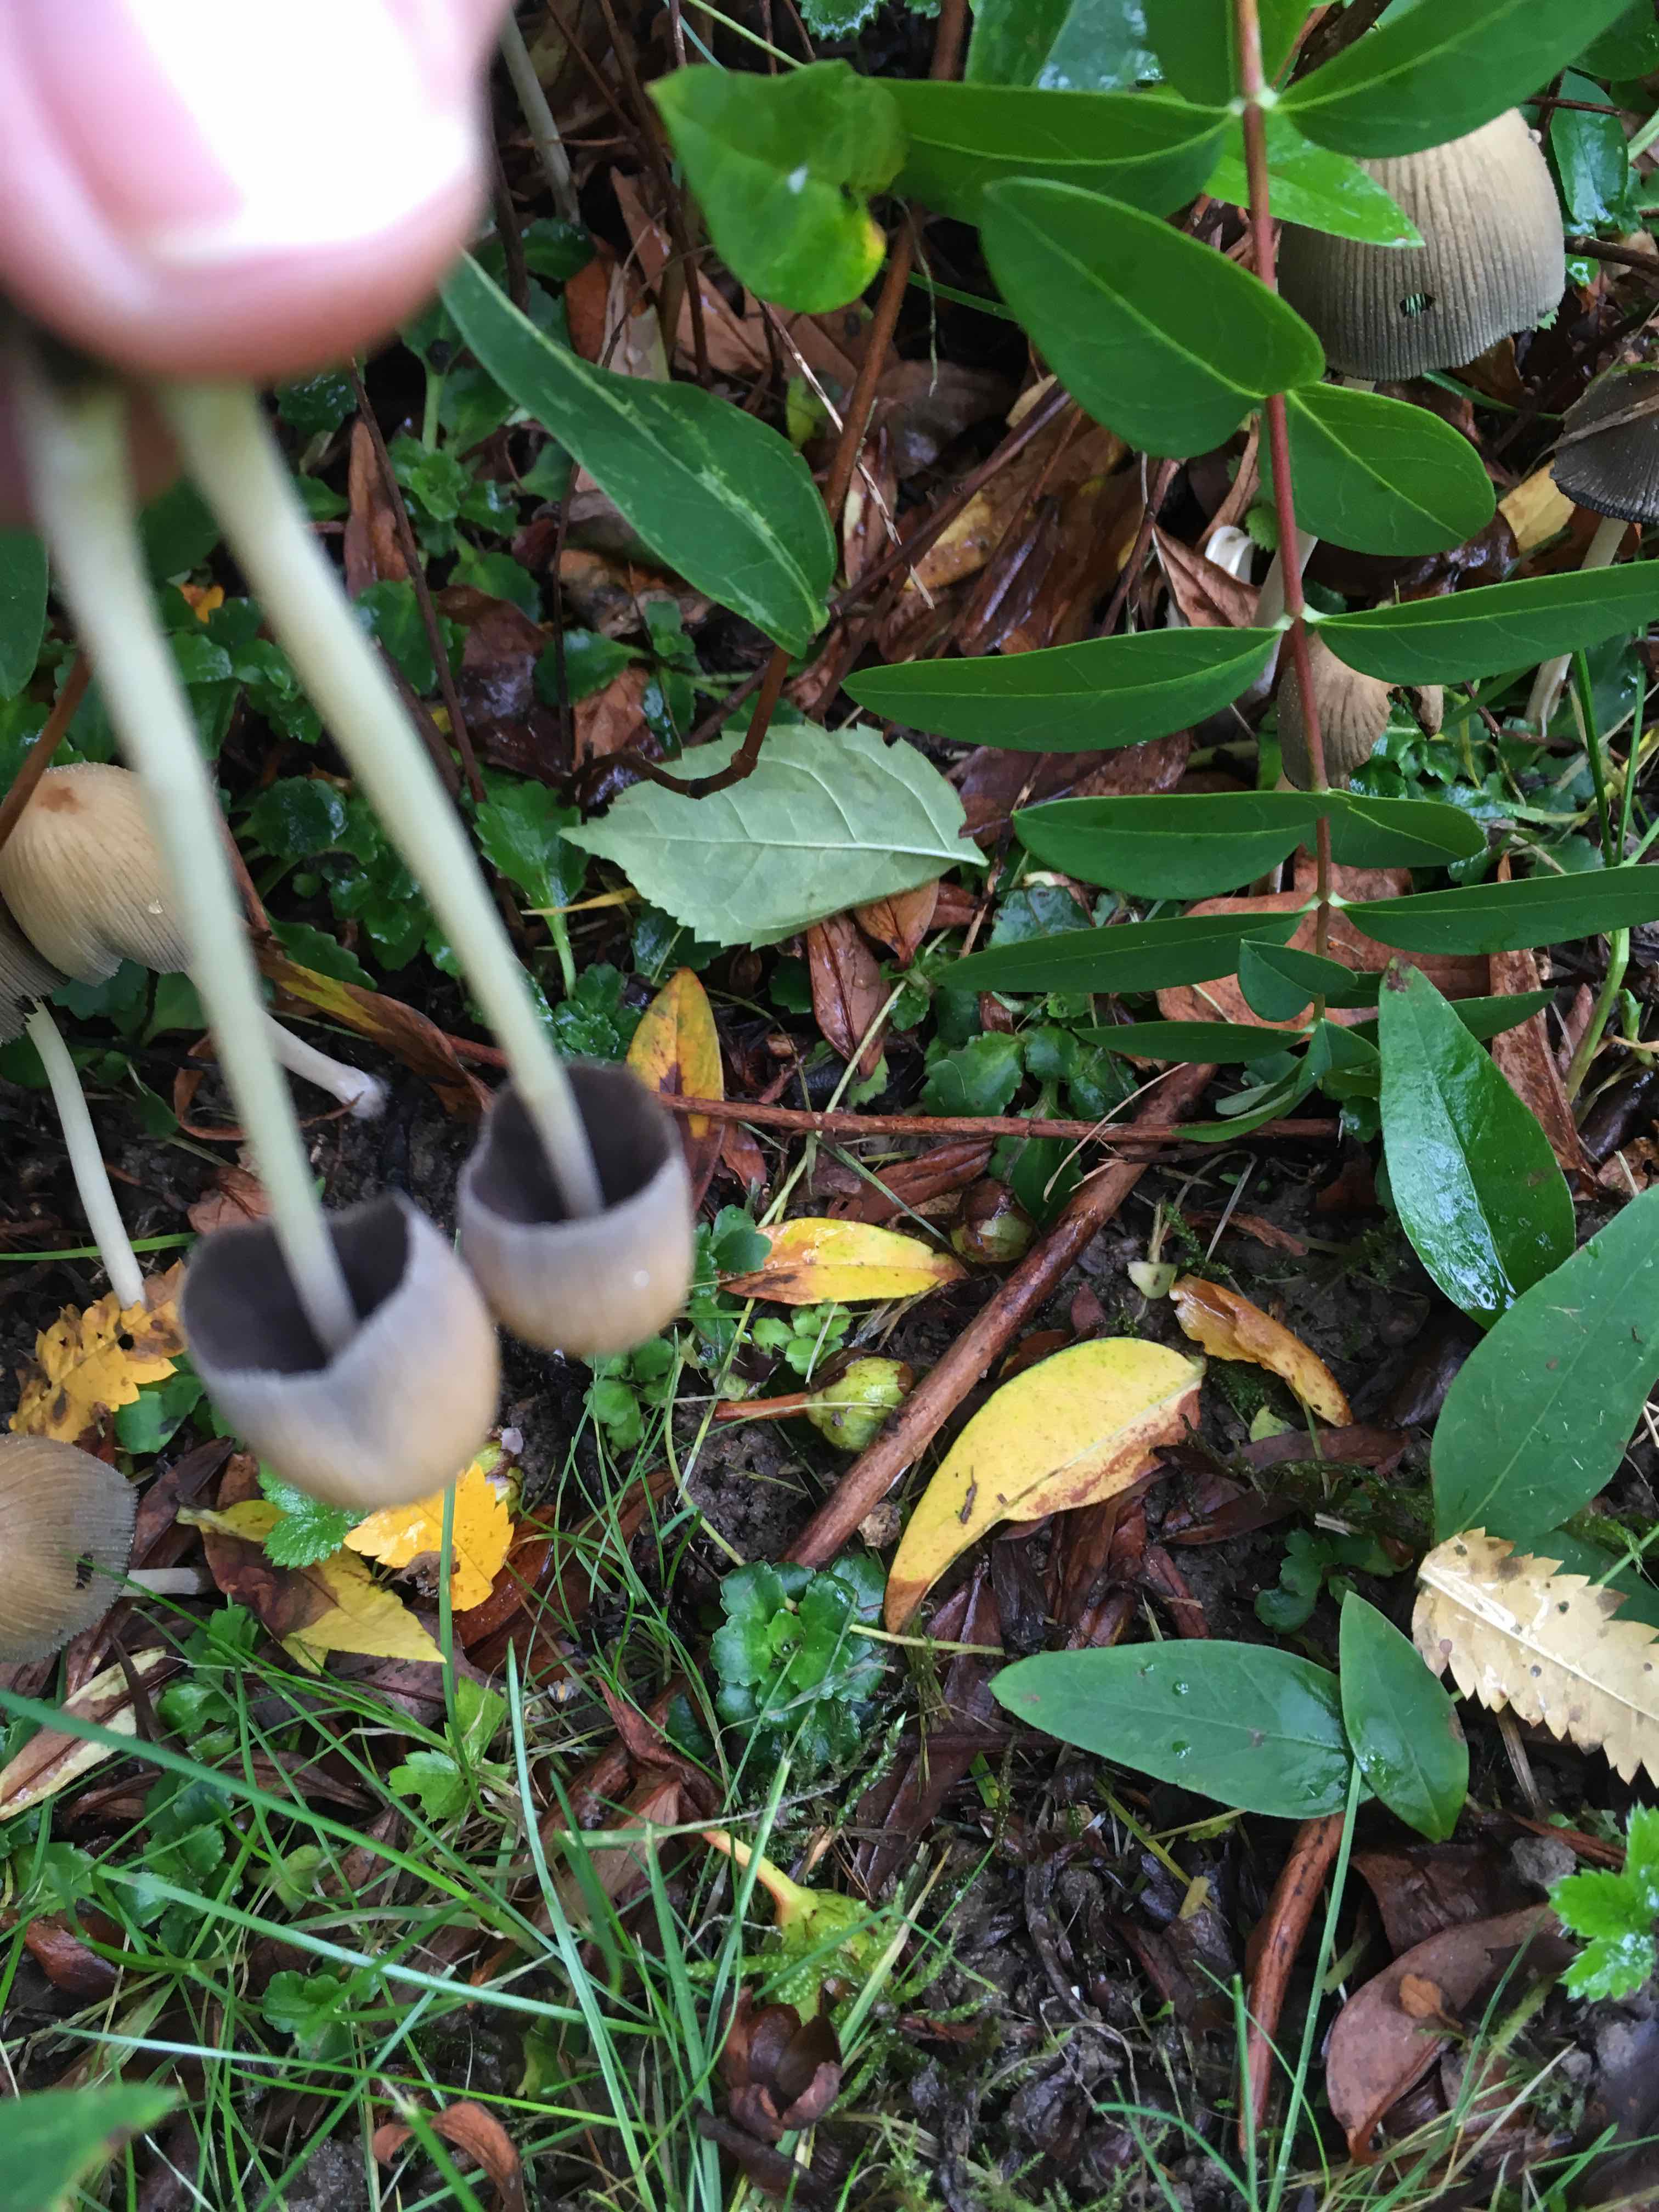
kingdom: Fungi
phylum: Basidiomycota
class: Agaricomycetes
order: Agaricales
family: Psathyrellaceae
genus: Coprinellus
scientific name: Coprinellus
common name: blækhat
